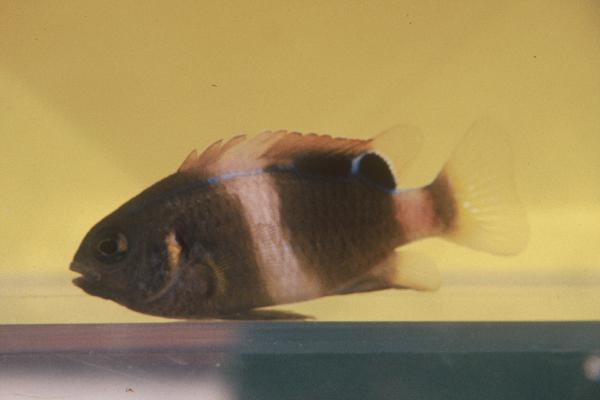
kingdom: Animalia
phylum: Chordata
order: Perciformes
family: Pomacentridae
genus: Chrysiptera
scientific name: Chrysiptera
